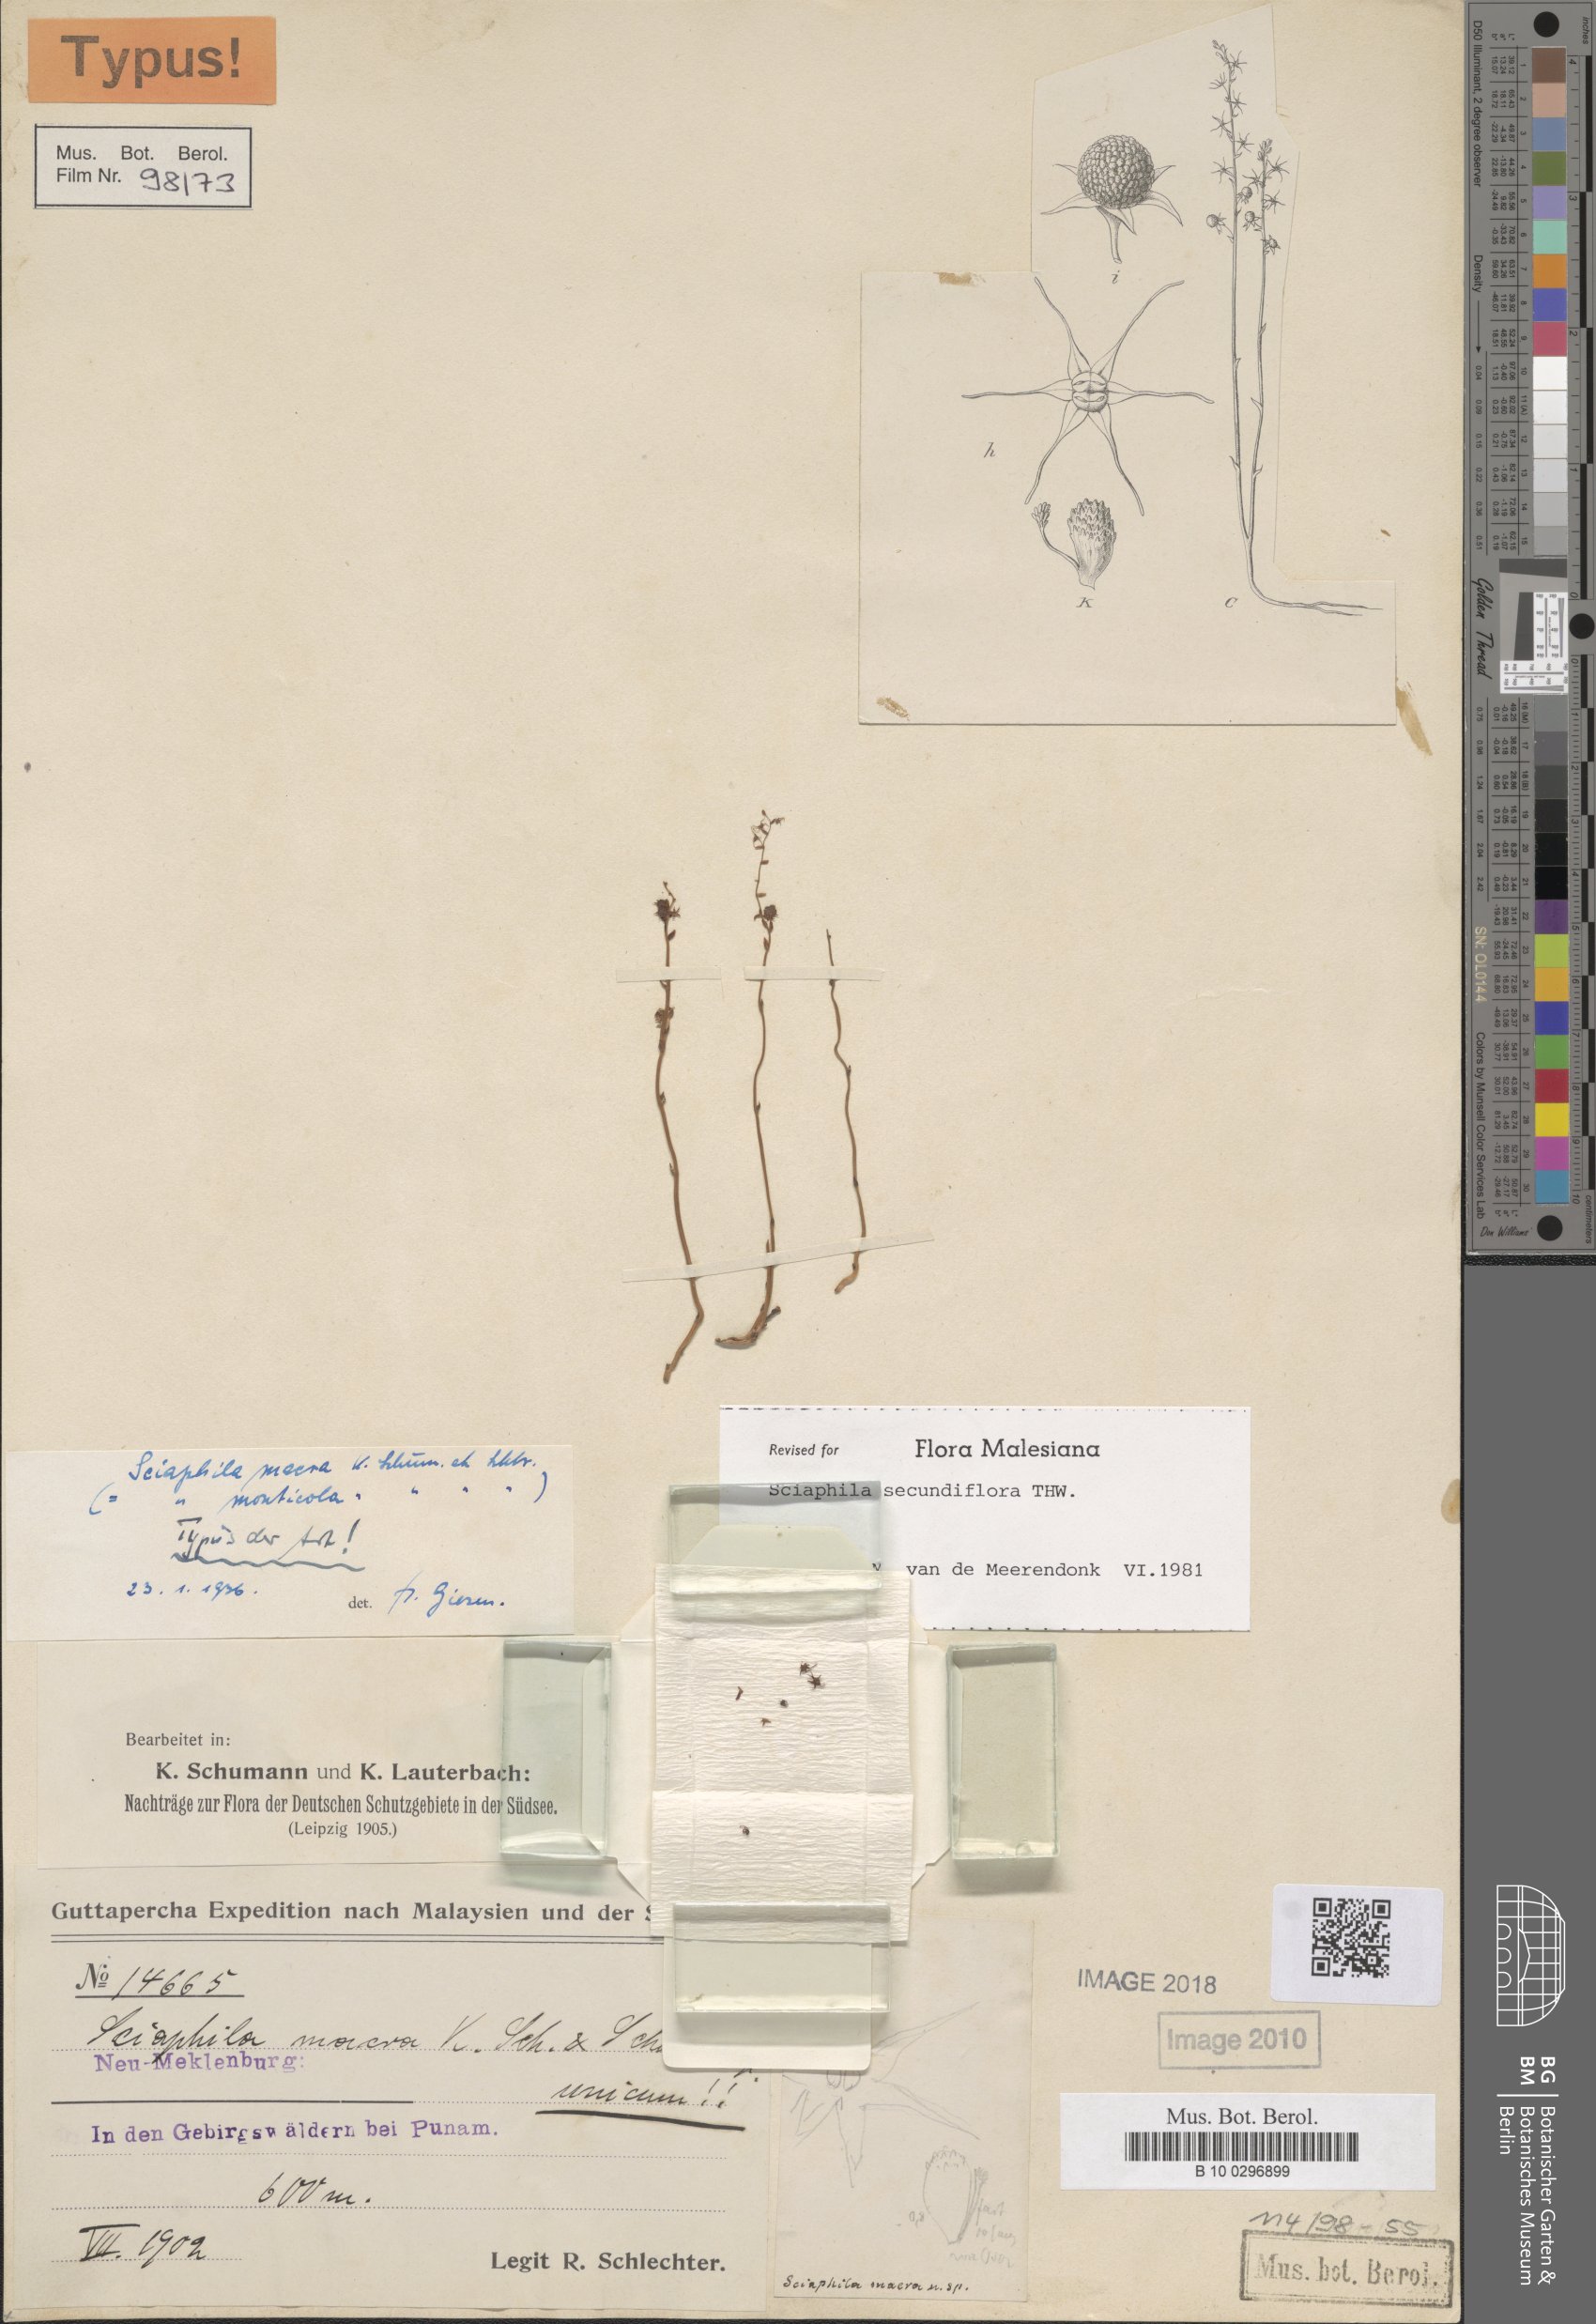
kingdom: Plantae
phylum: Tracheophyta
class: Liliopsida
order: Pandanales
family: Triuridaceae
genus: Sciaphila
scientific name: Sciaphila secundiflora
